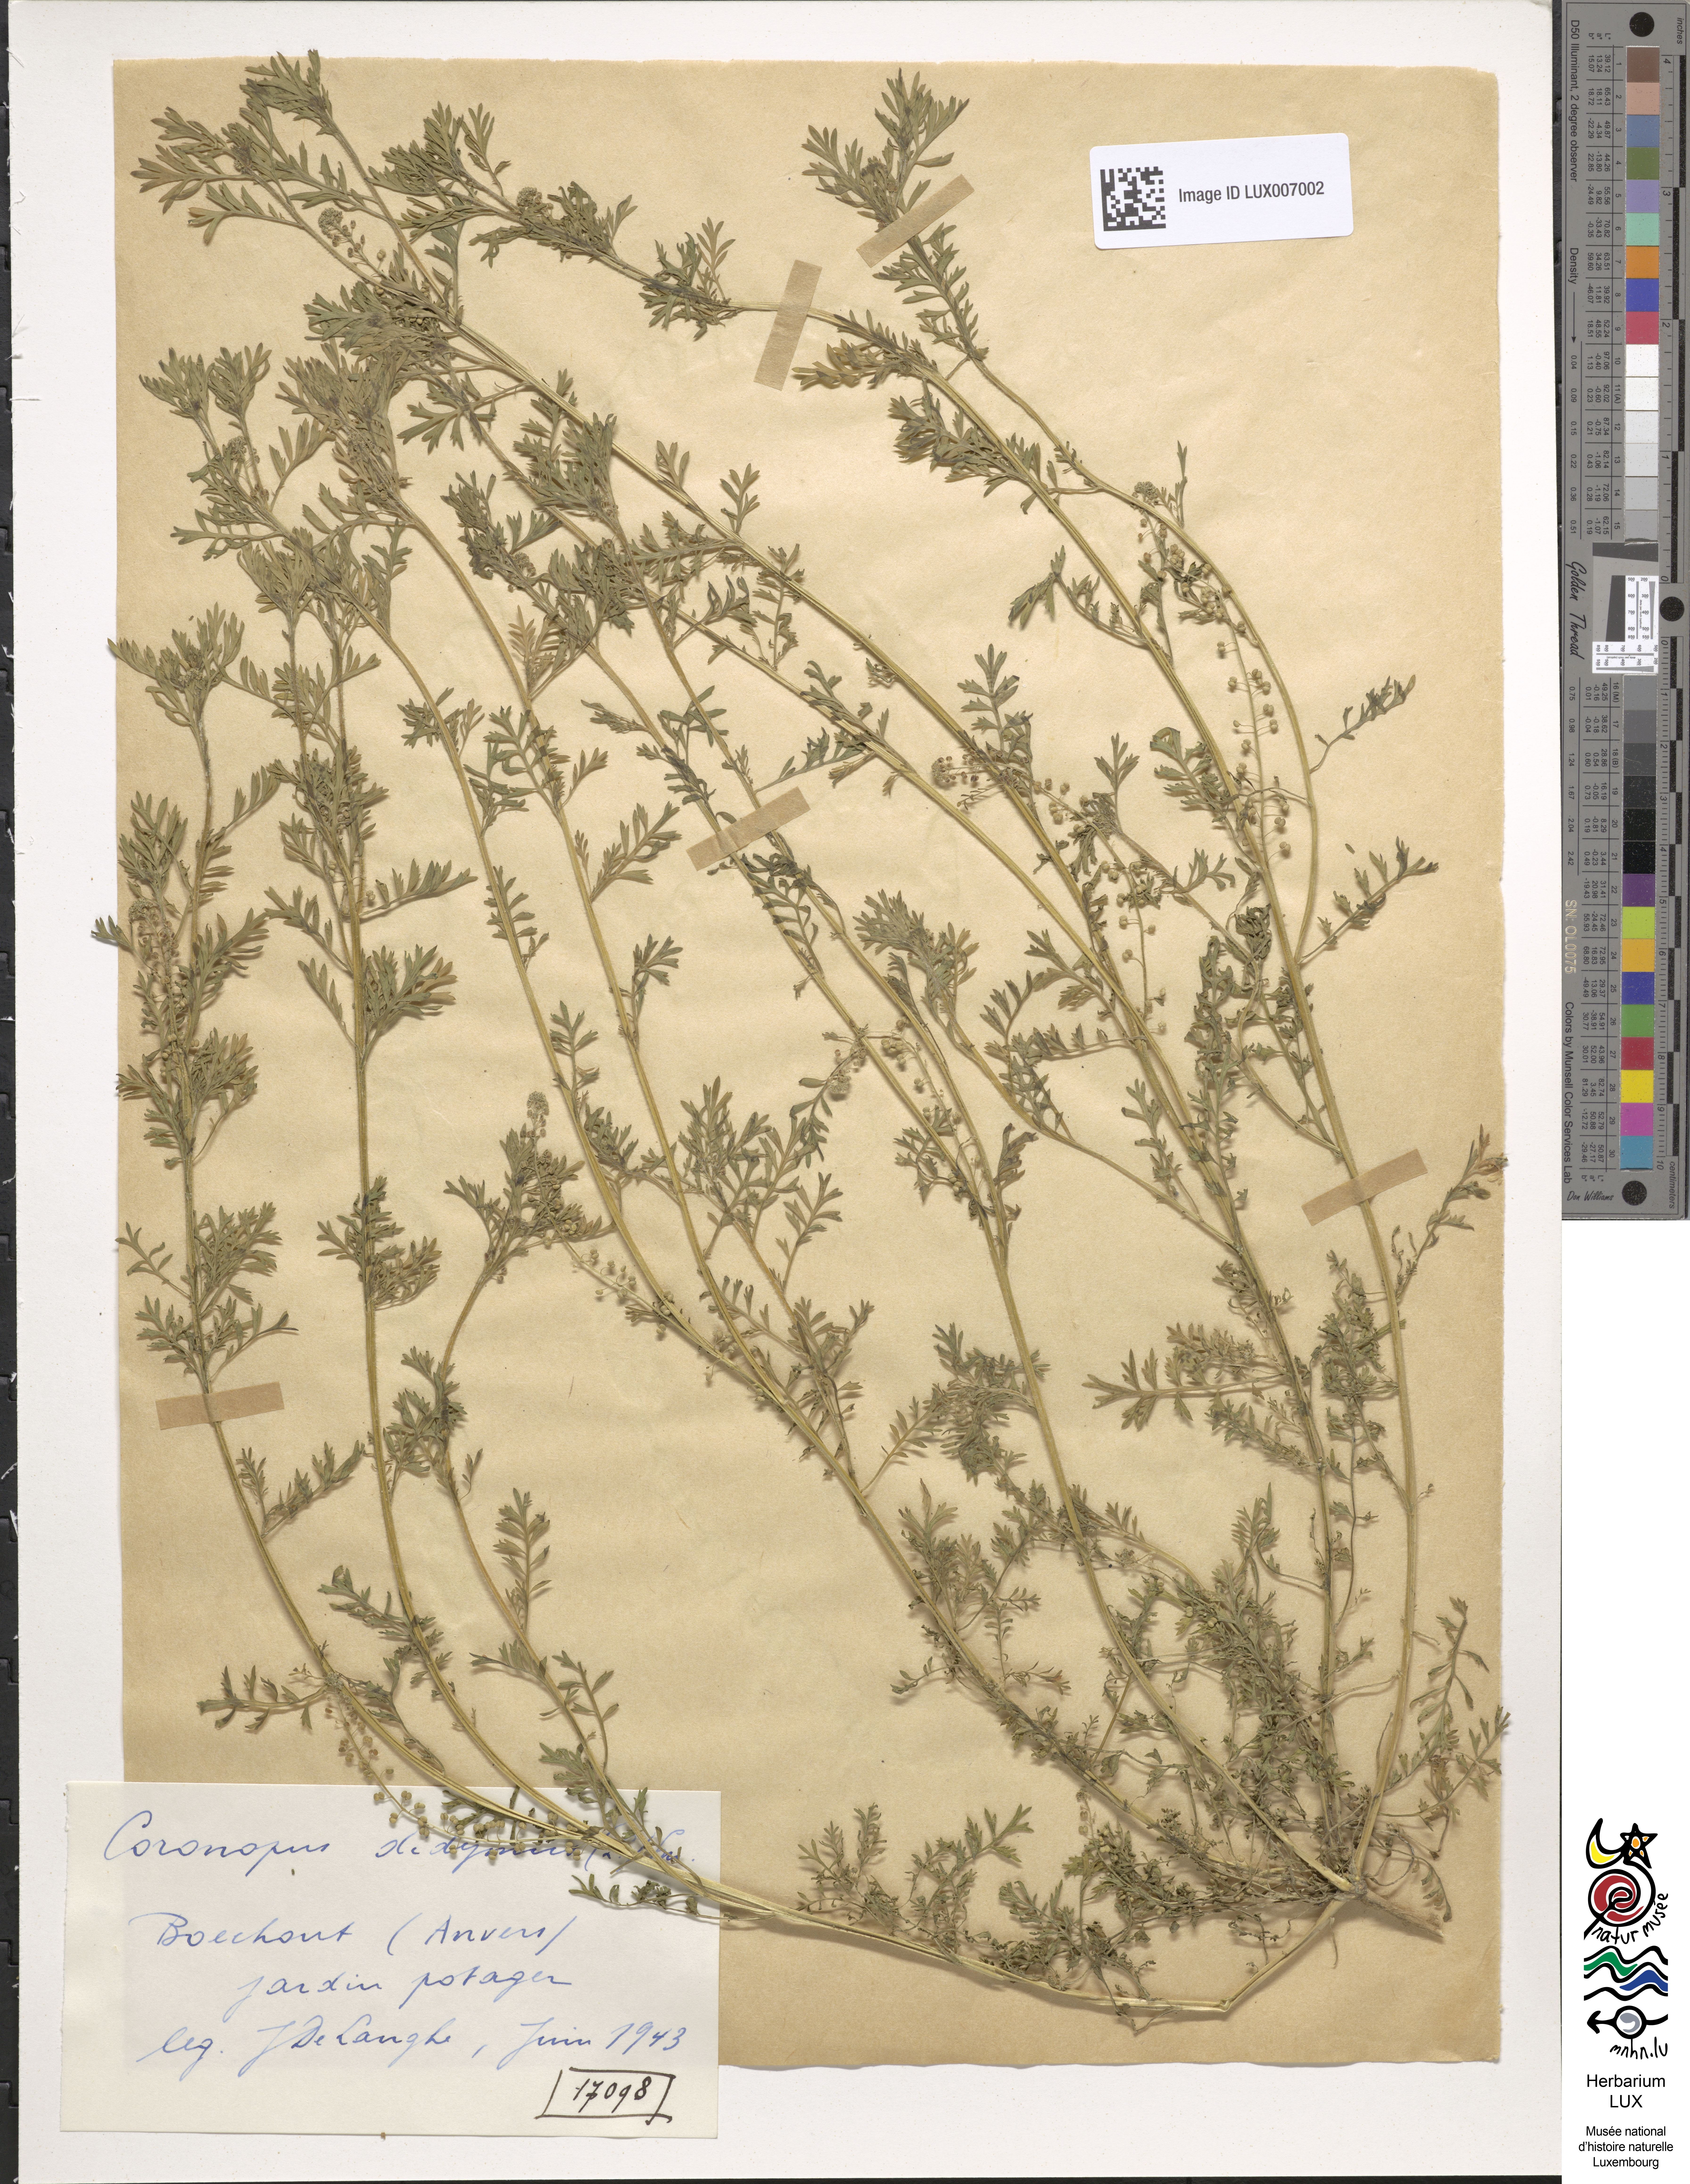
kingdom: Plantae
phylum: Tracheophyta
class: Magnoliopsida
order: Brassicales
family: Brassicaceae
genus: Lepidium
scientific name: Lepidium didymum
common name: Lesser swinecress
